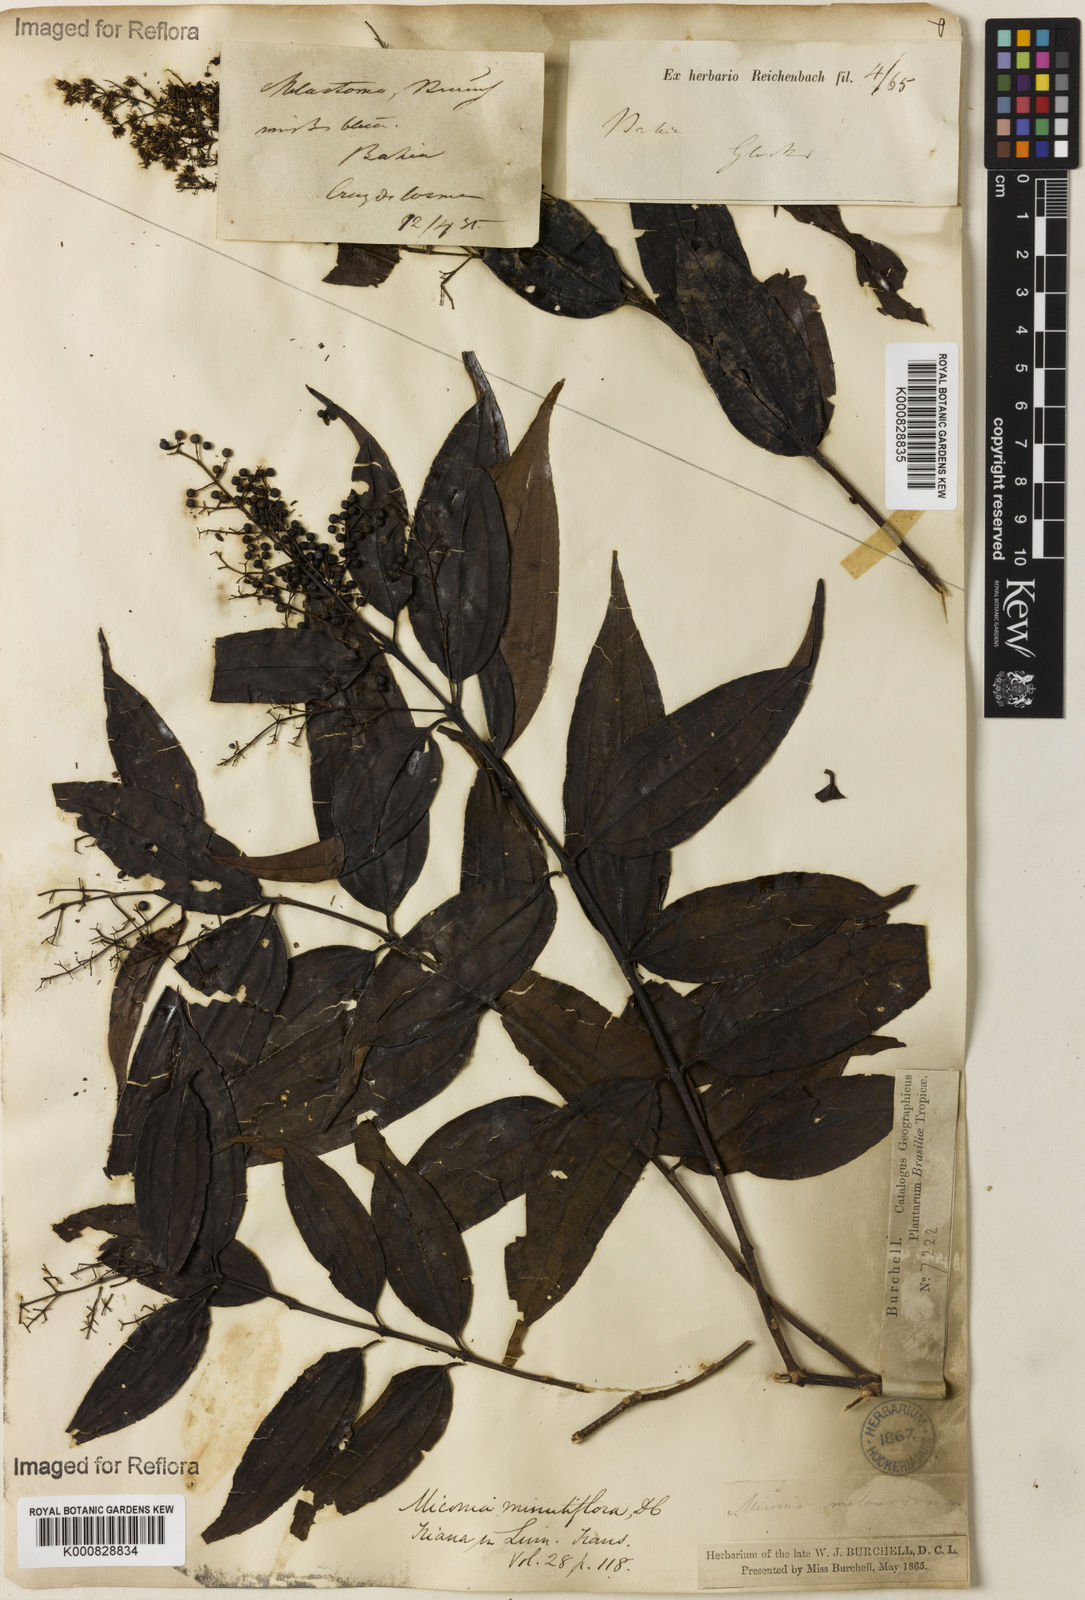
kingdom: Plantae
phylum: Tracheophyta
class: Magnoliopsida
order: Myrtales
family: Melastomataceae
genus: Miconia
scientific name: Miconia minutiflora
